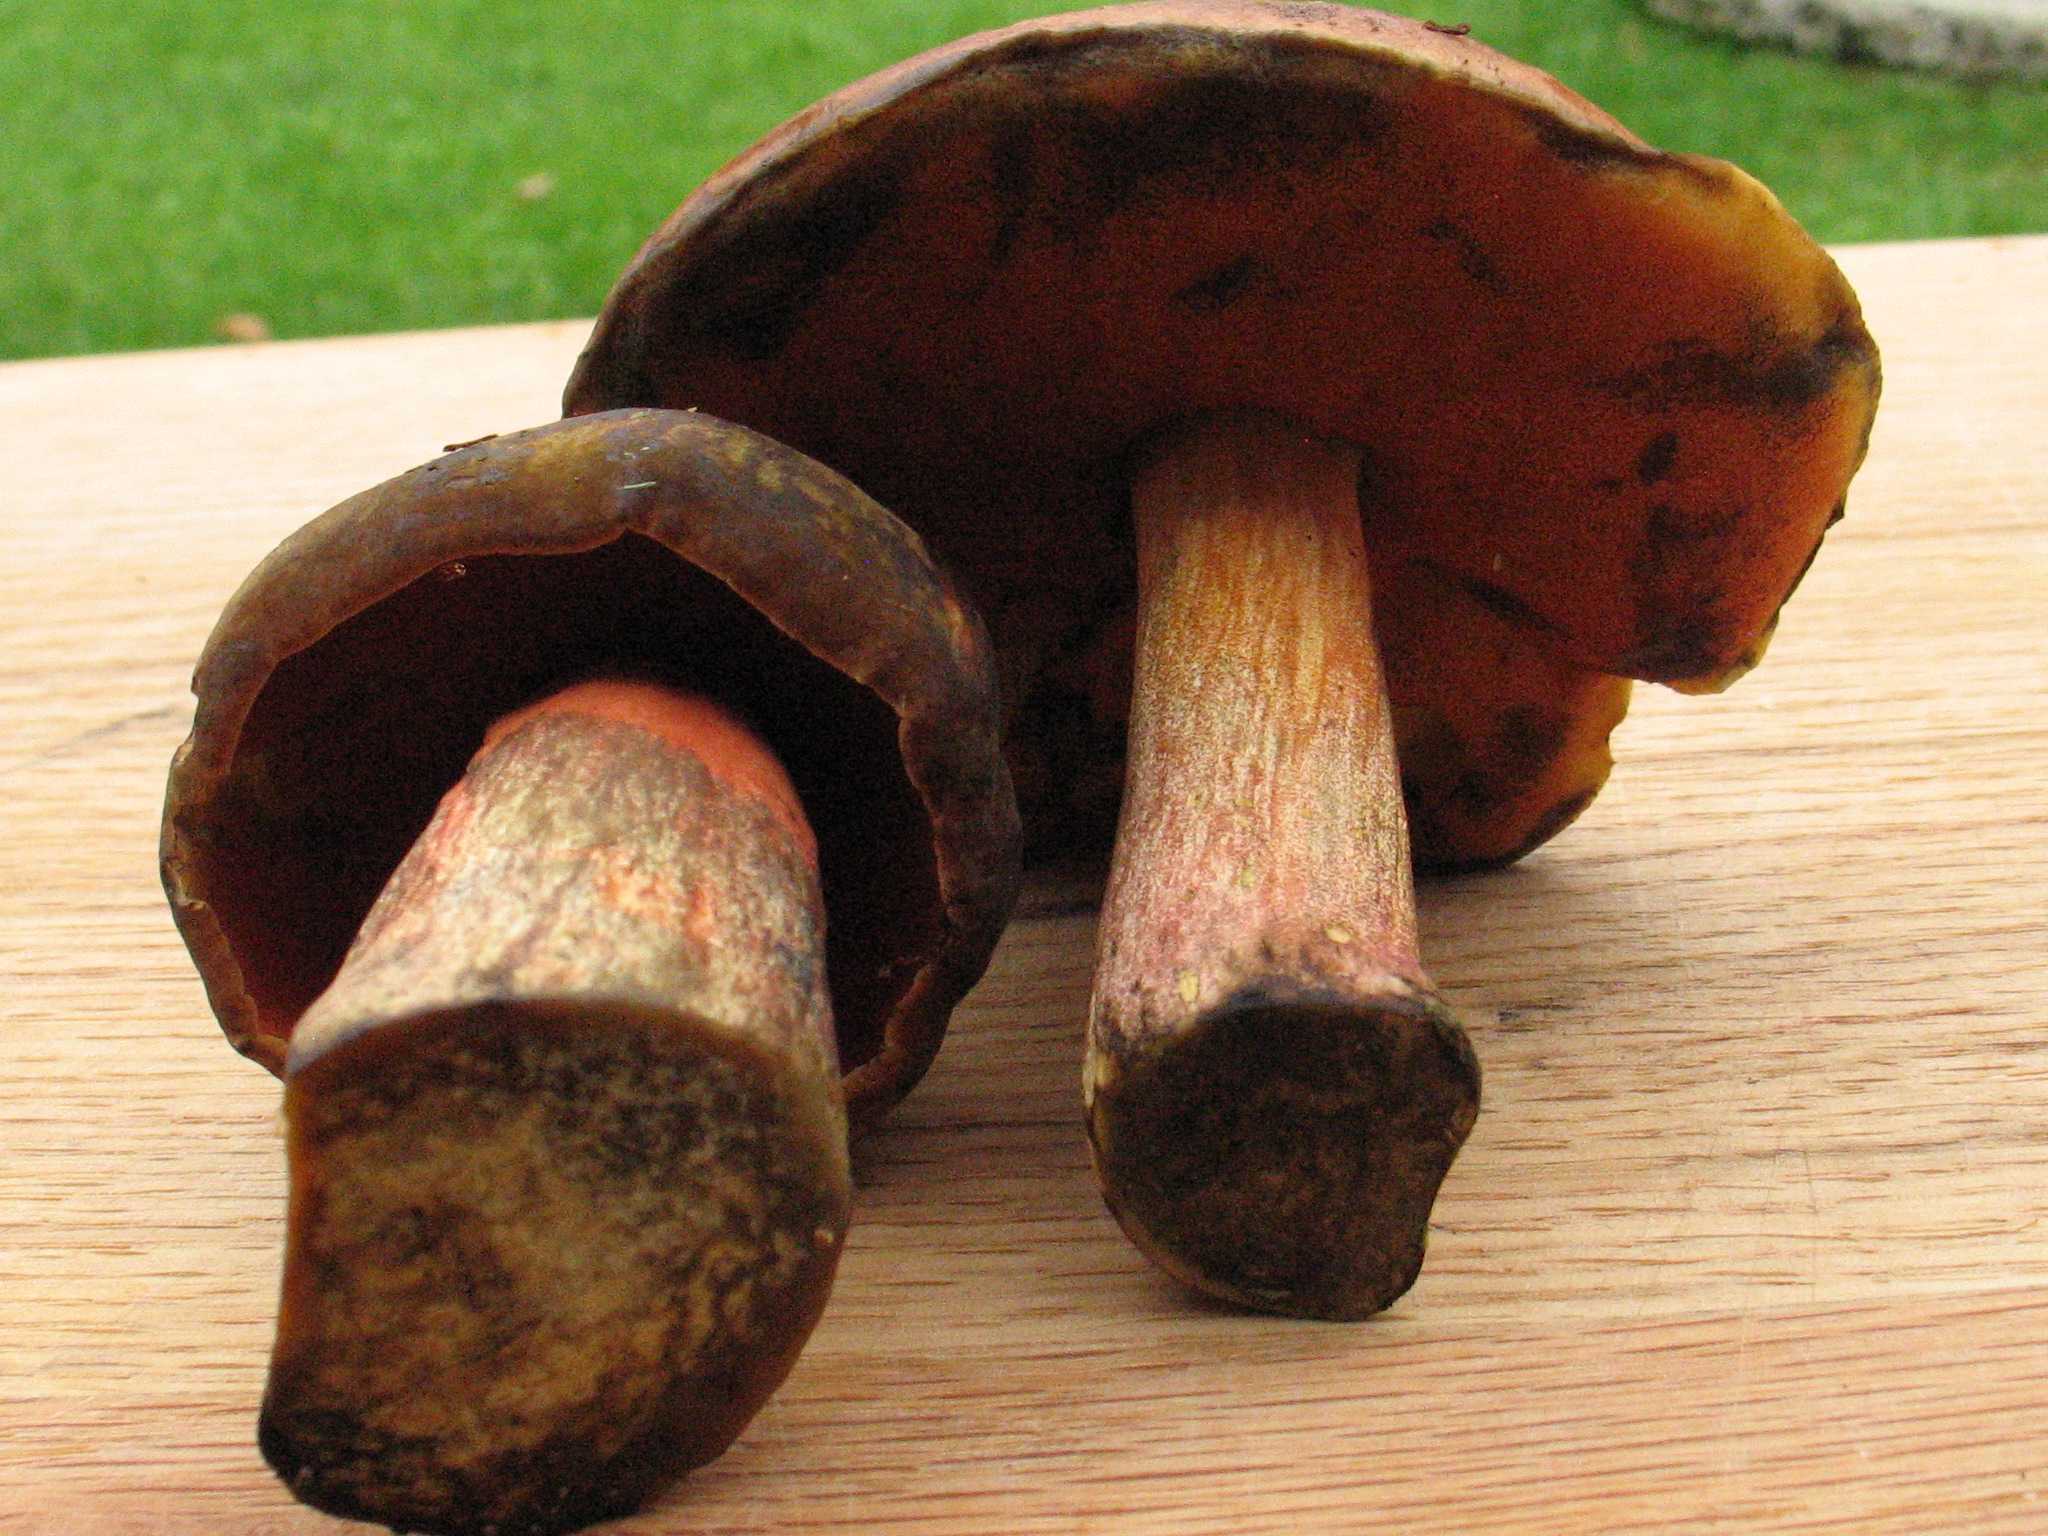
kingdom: Fungi
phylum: Basidiomycota
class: Agaricomycetes
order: Boletales
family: Boletaceae
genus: Neoboletus
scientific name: Neoboletus erythropus
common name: punktstokket indigorørhat
